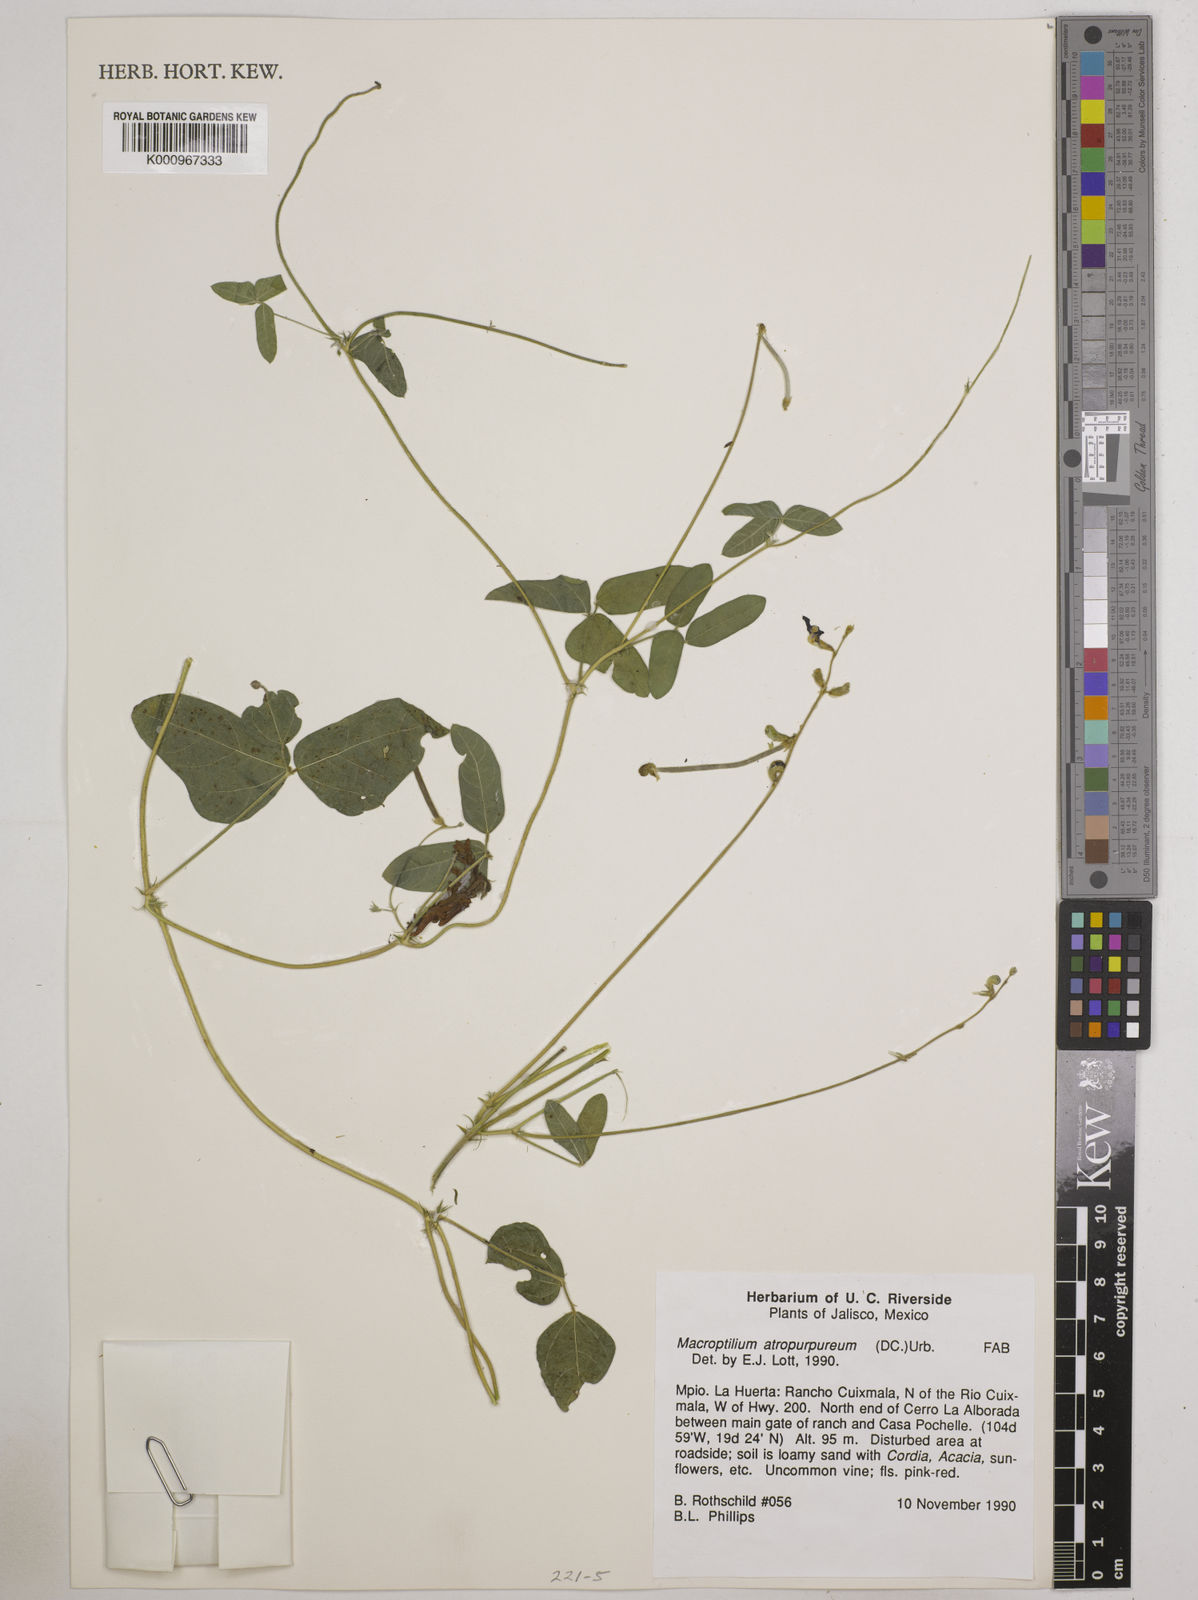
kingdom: Plantae
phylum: Tracheophyta
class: Magnoliopsida
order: Fabales
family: Fabaceae
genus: Macroptilium
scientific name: Macroptilium atropurpureum
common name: Purple bushbean
